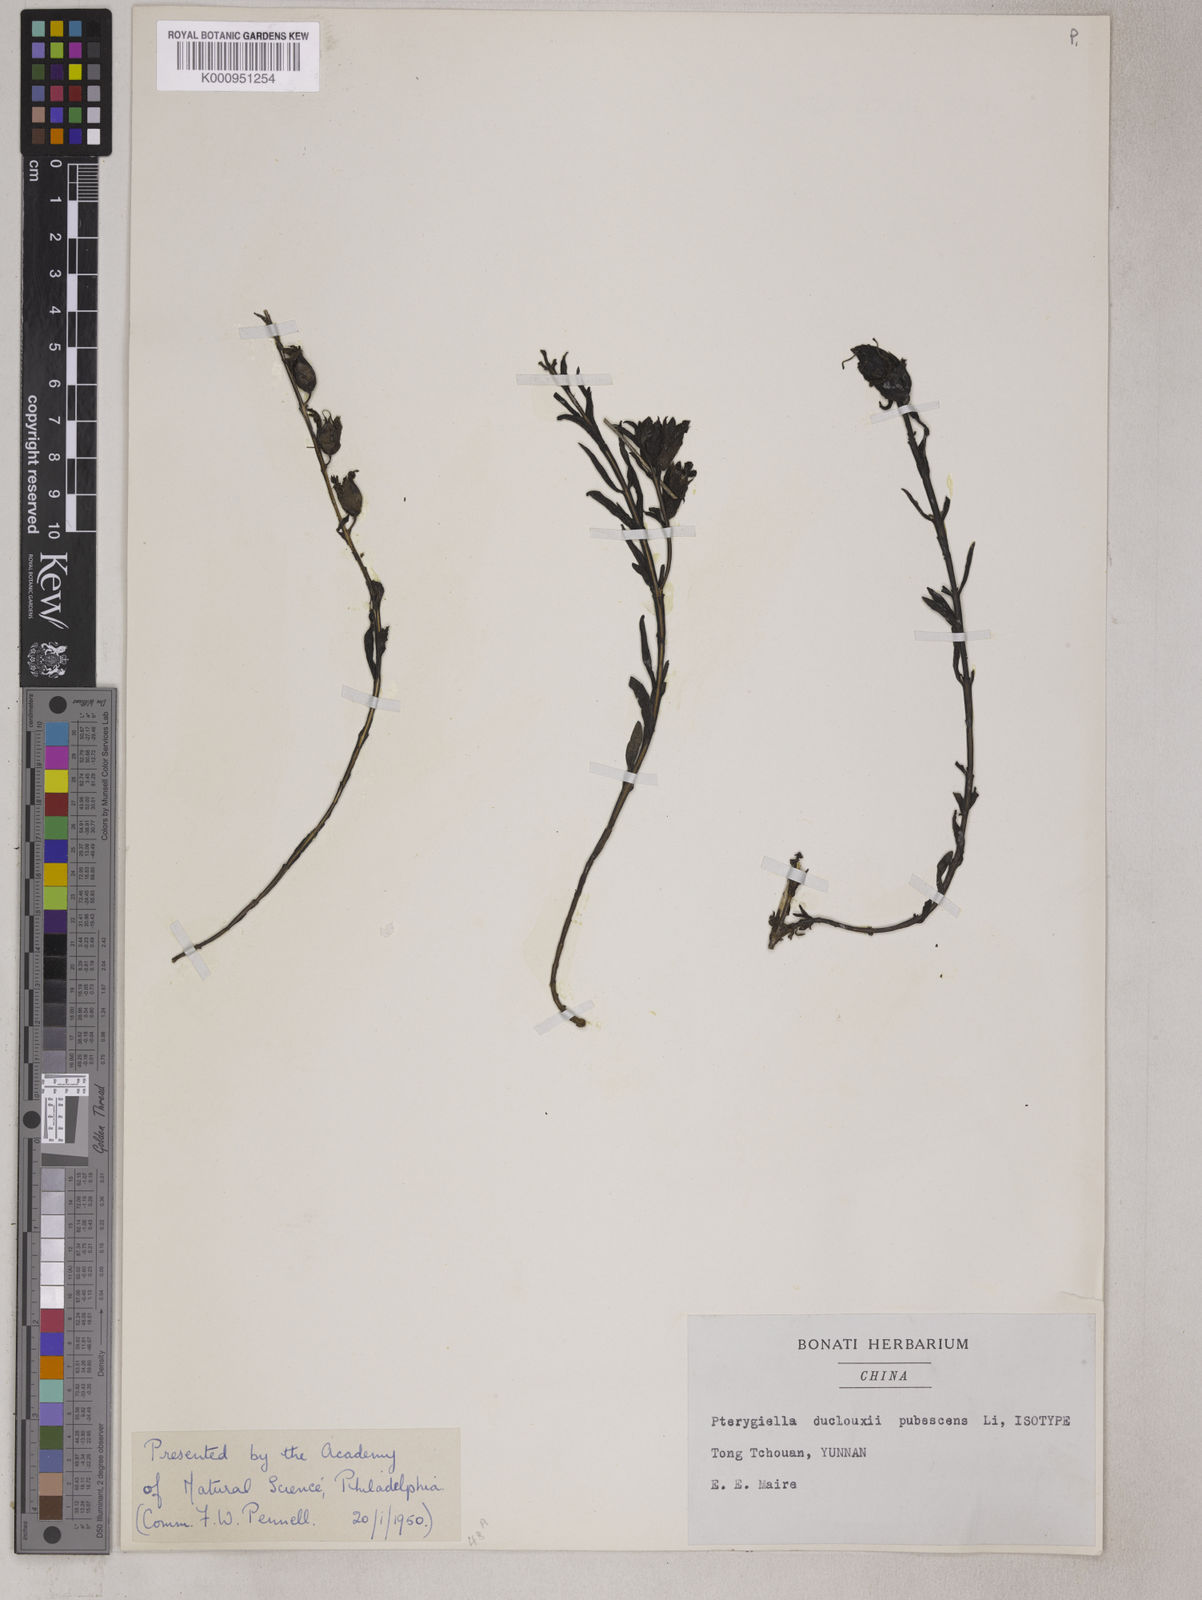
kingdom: Plantae
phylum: Tracheophyta
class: Magnoliopsida
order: Lamiales
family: Orobanchaceae
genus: Pterygiella
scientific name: Pterygiella duclouxii
